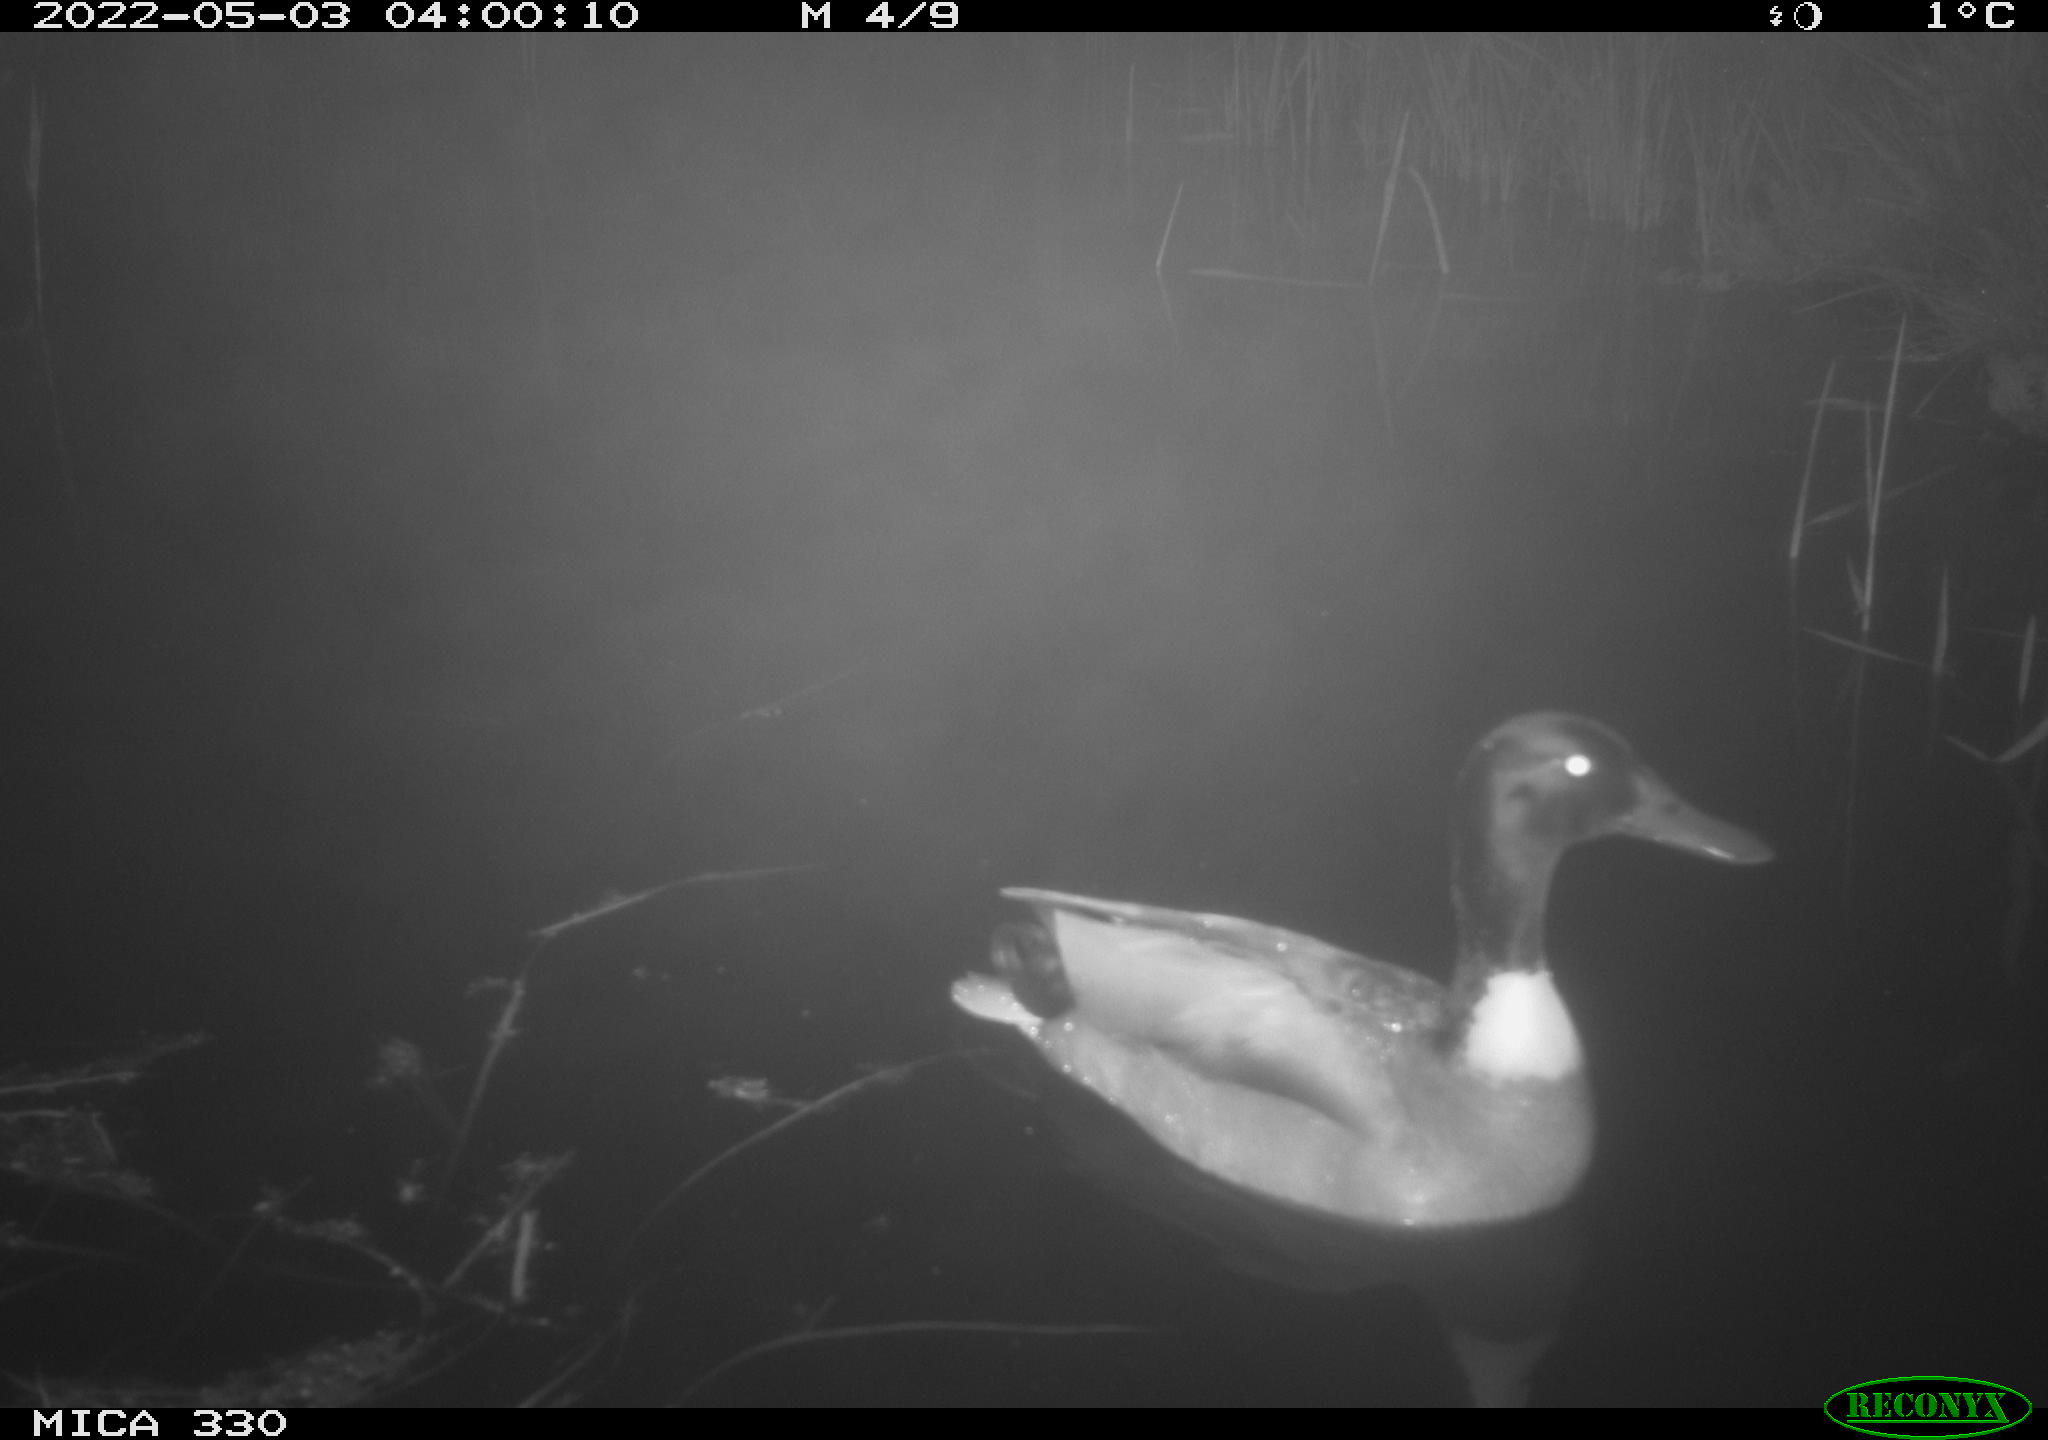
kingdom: Animalia
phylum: Chordata
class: Aves
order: Anseriformes
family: Anatidae
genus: Anas
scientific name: Anas platyrhynchos
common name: Mallard
